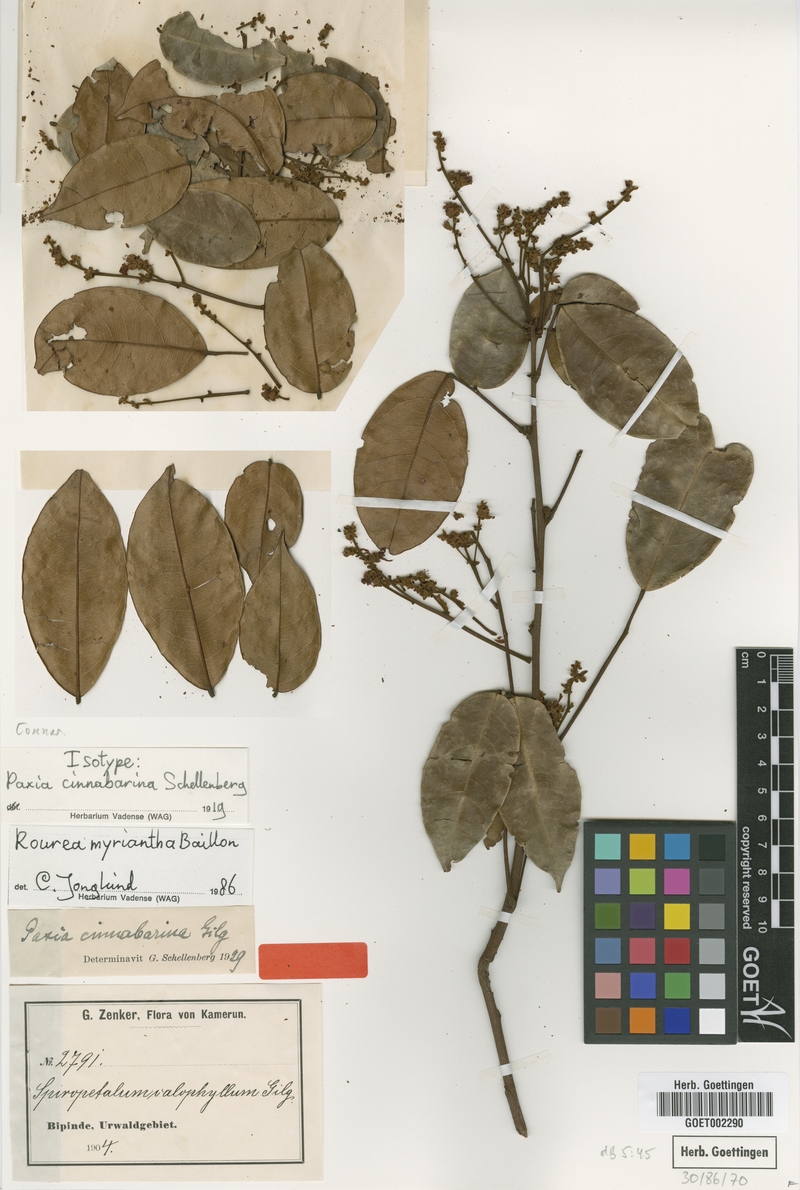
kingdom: Plantae
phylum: Tracheophyta
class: Magnoliopsida
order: Oxalidales
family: Connaraceae
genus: Rourea
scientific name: Rourea myriantha
